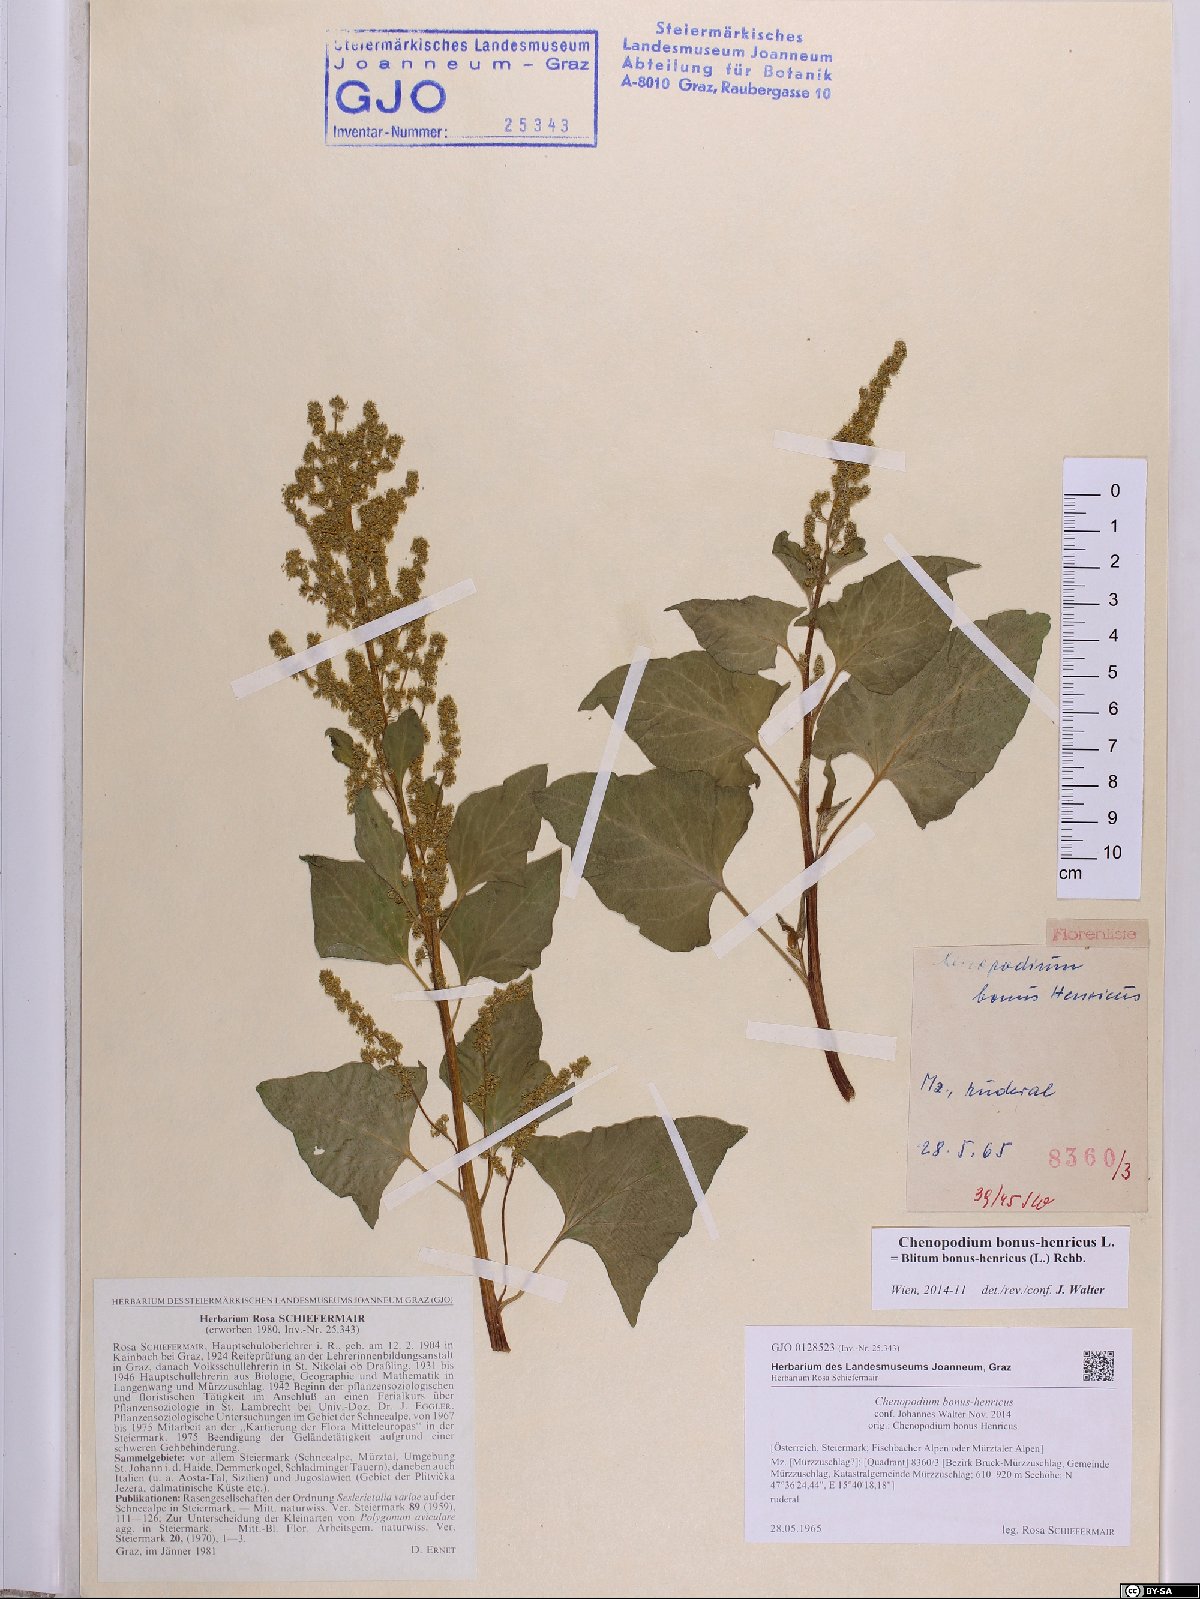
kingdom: Plantae
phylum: Tracheophyta
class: Magnoliopsida
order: Caryophyllales
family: Amaranthaceae
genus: Blitum
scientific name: Blitum bonus-henricus
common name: Good king henry
